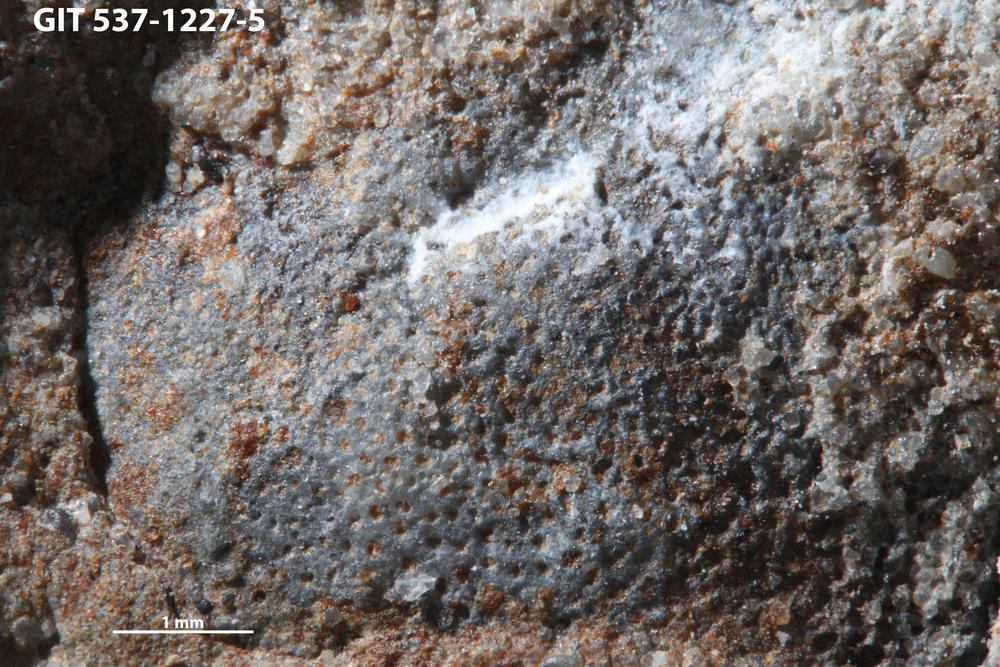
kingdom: Animalia
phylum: Bryozoa
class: Stenolaemata
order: Trepostomatida
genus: Pakripora
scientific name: Pakripora cavernosa
